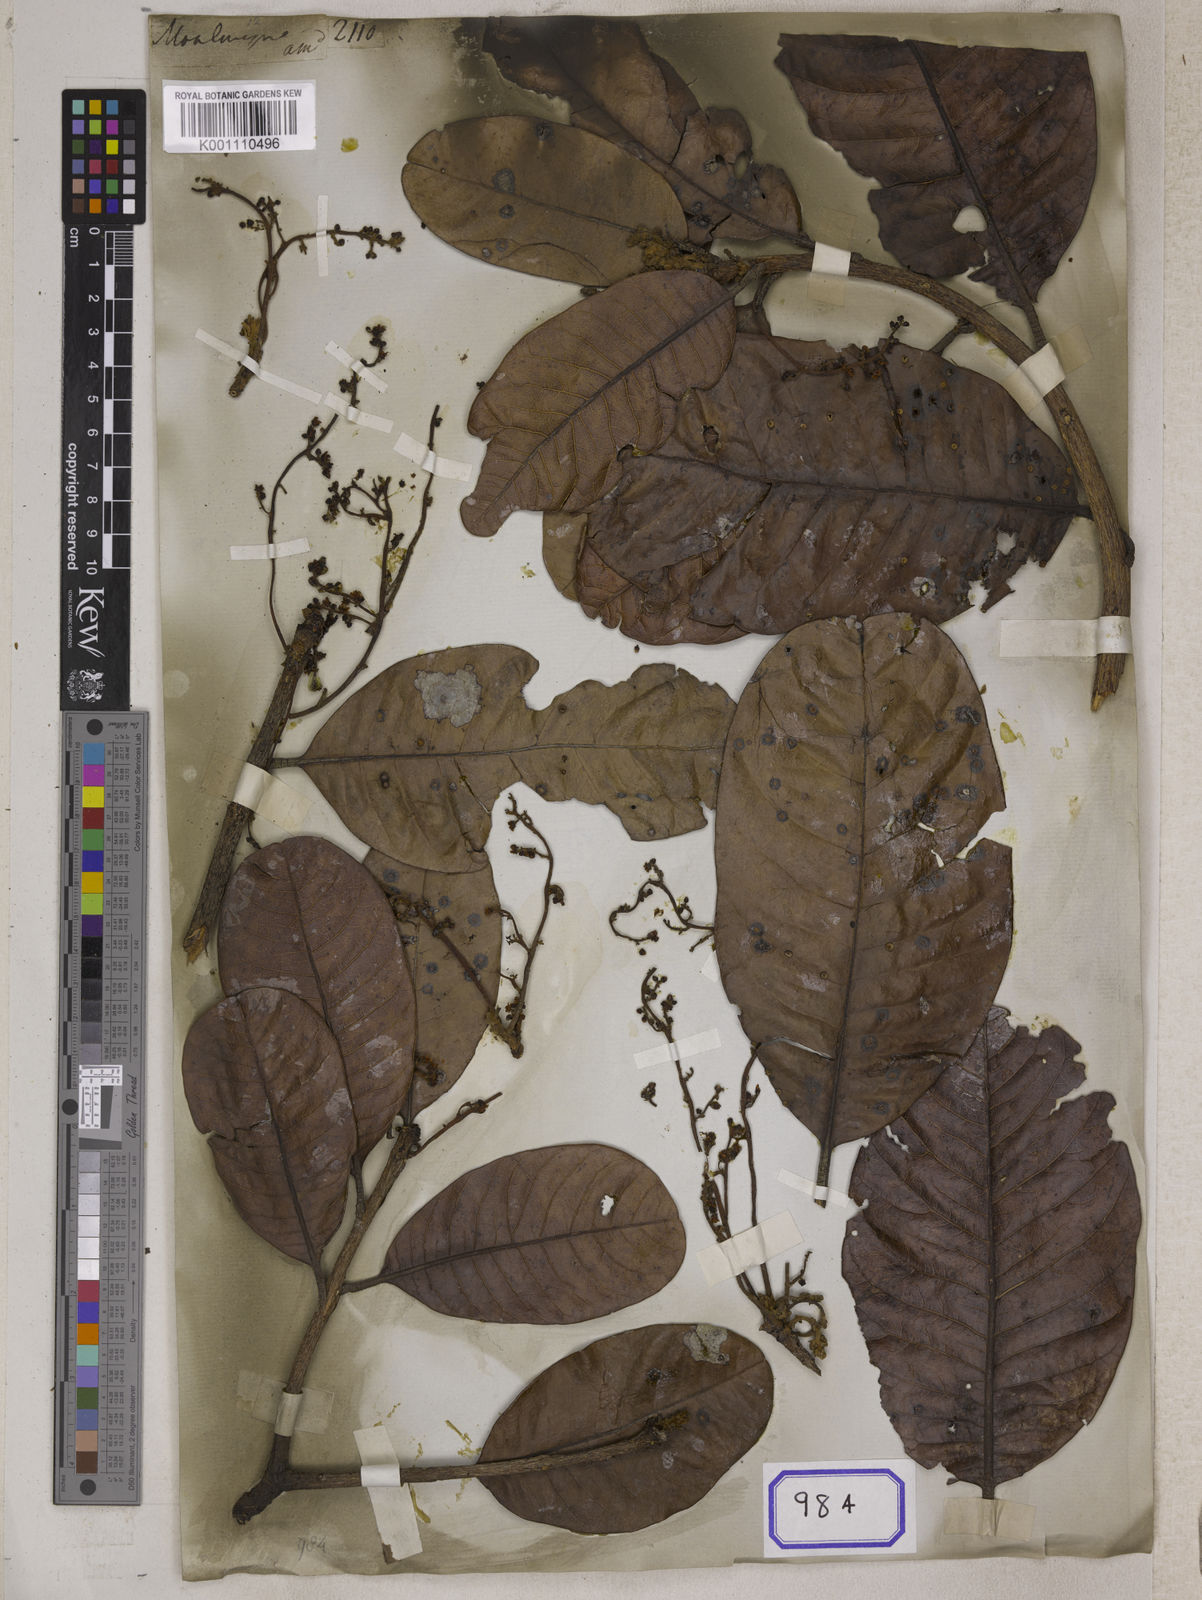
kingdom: Plantae
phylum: Tracheophyta
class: Magnoliopsida
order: Sapindales
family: Anacardiaceae
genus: Buchanania
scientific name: Buchanania
